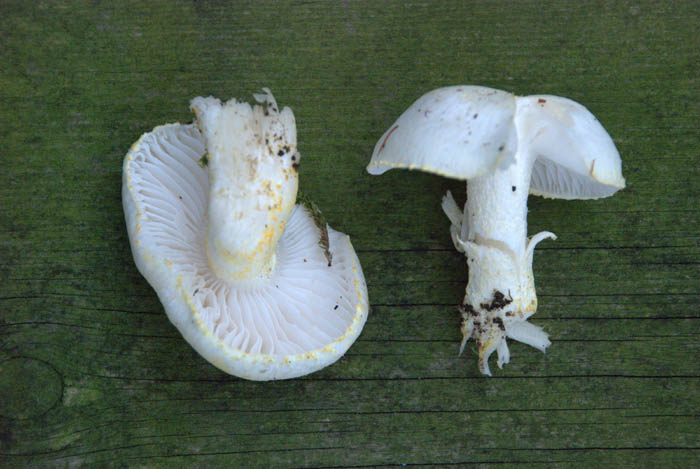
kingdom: Fungi
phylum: Basidiomycota
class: Agaricomycetes
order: Agaricales
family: Hygrophoraceae
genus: Hygrophorus
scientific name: Hygrophorus chrysodon
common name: gulfnugget sneglehat
